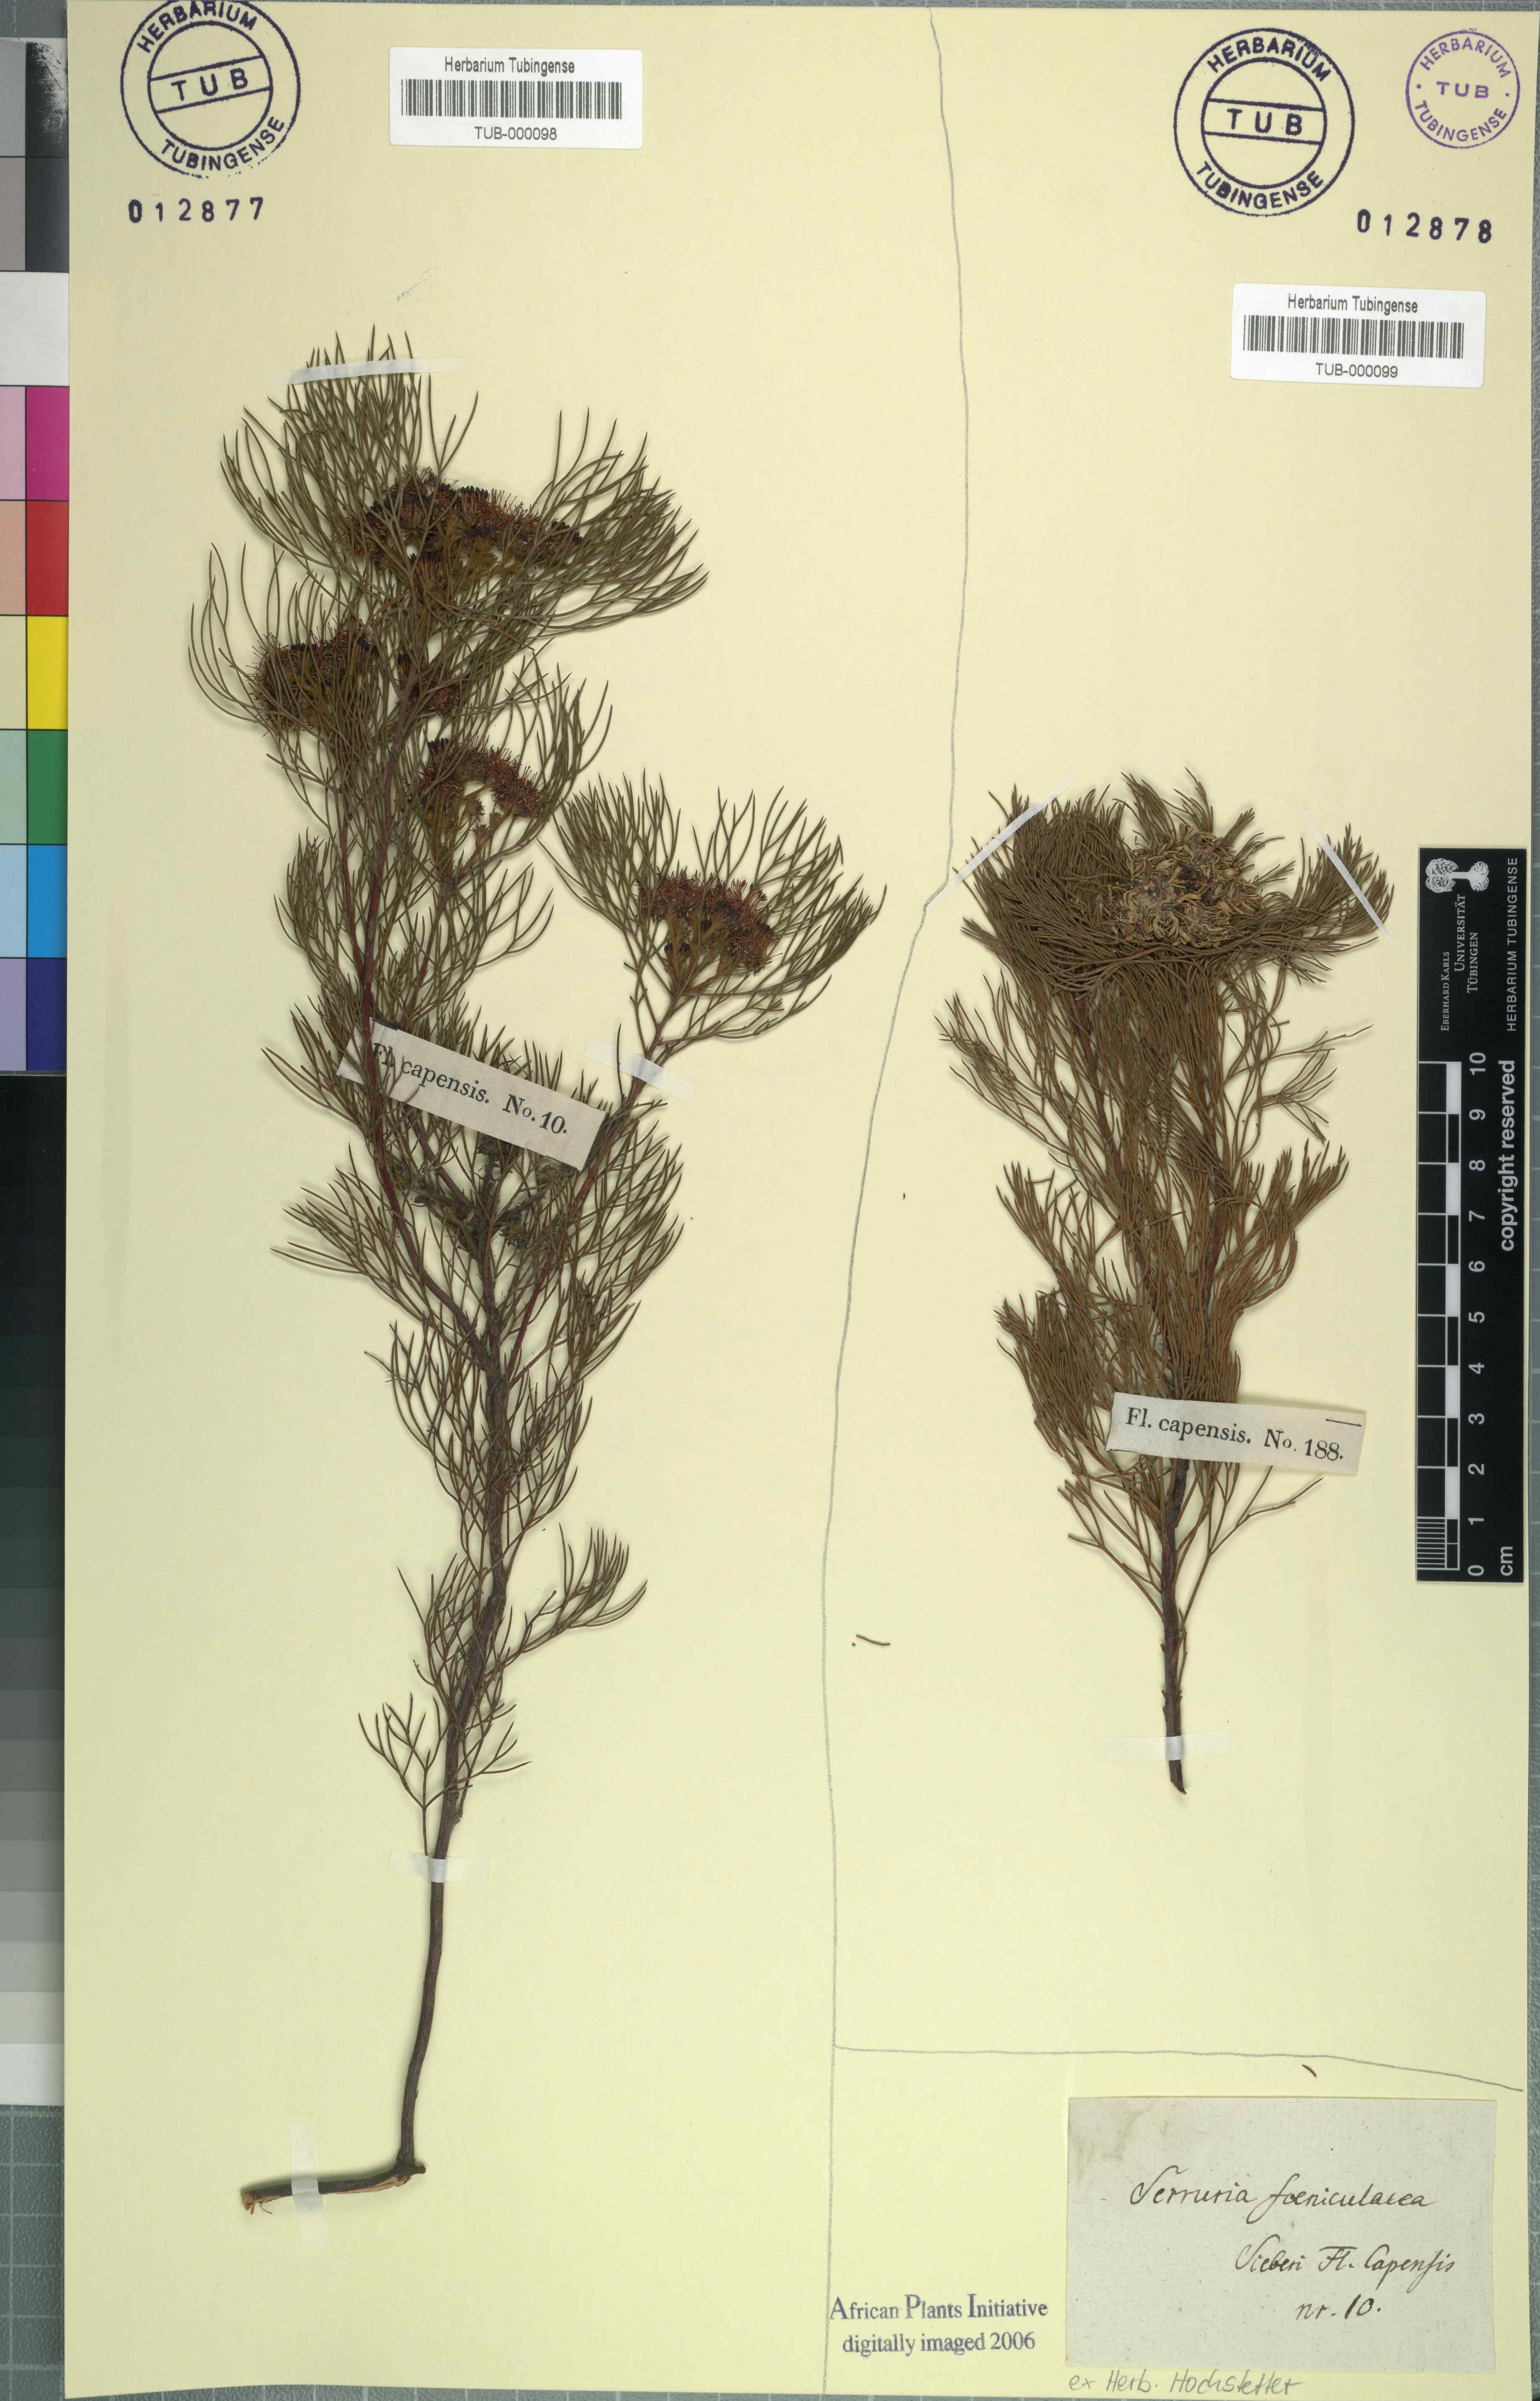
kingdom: Plantae
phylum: Tracheophyta
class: Magnoliopsida
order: Proteales
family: Proteaceae
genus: Serruria
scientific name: Serruria glomerata
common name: Cluster spiderhead
